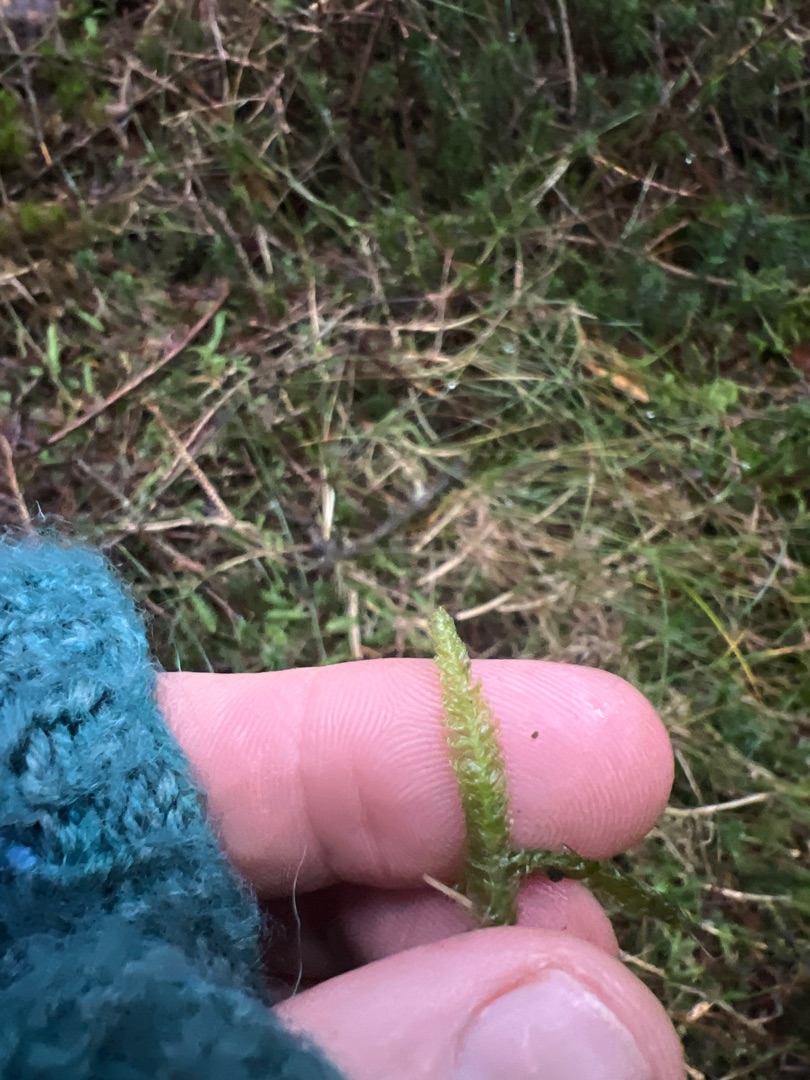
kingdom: Plantae
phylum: Bryophyta
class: Bryopsida
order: Hypnales
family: Plagiotheciaceae
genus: Plagiothecium
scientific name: Plagiothecium undulatum
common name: Bølget tæppemos
